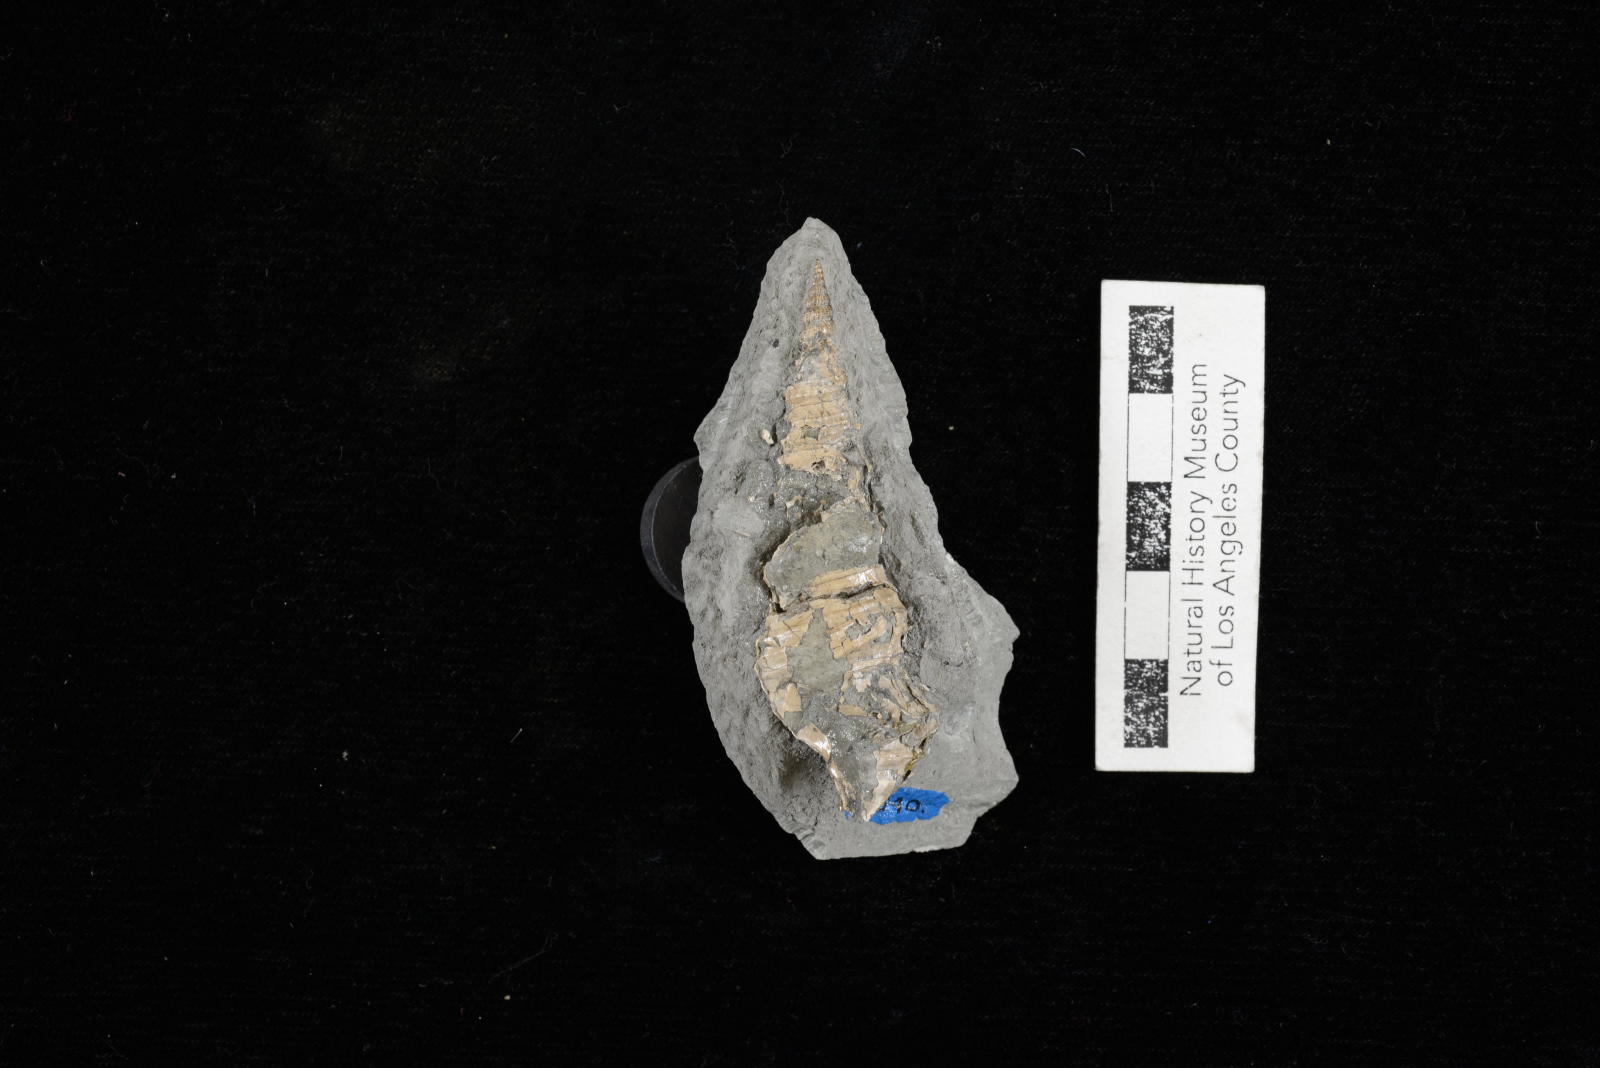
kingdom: Animalia
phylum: Mollusca
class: Gastropoda
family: Nerineidae
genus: Nerinea
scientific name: Nerinea stewarti
